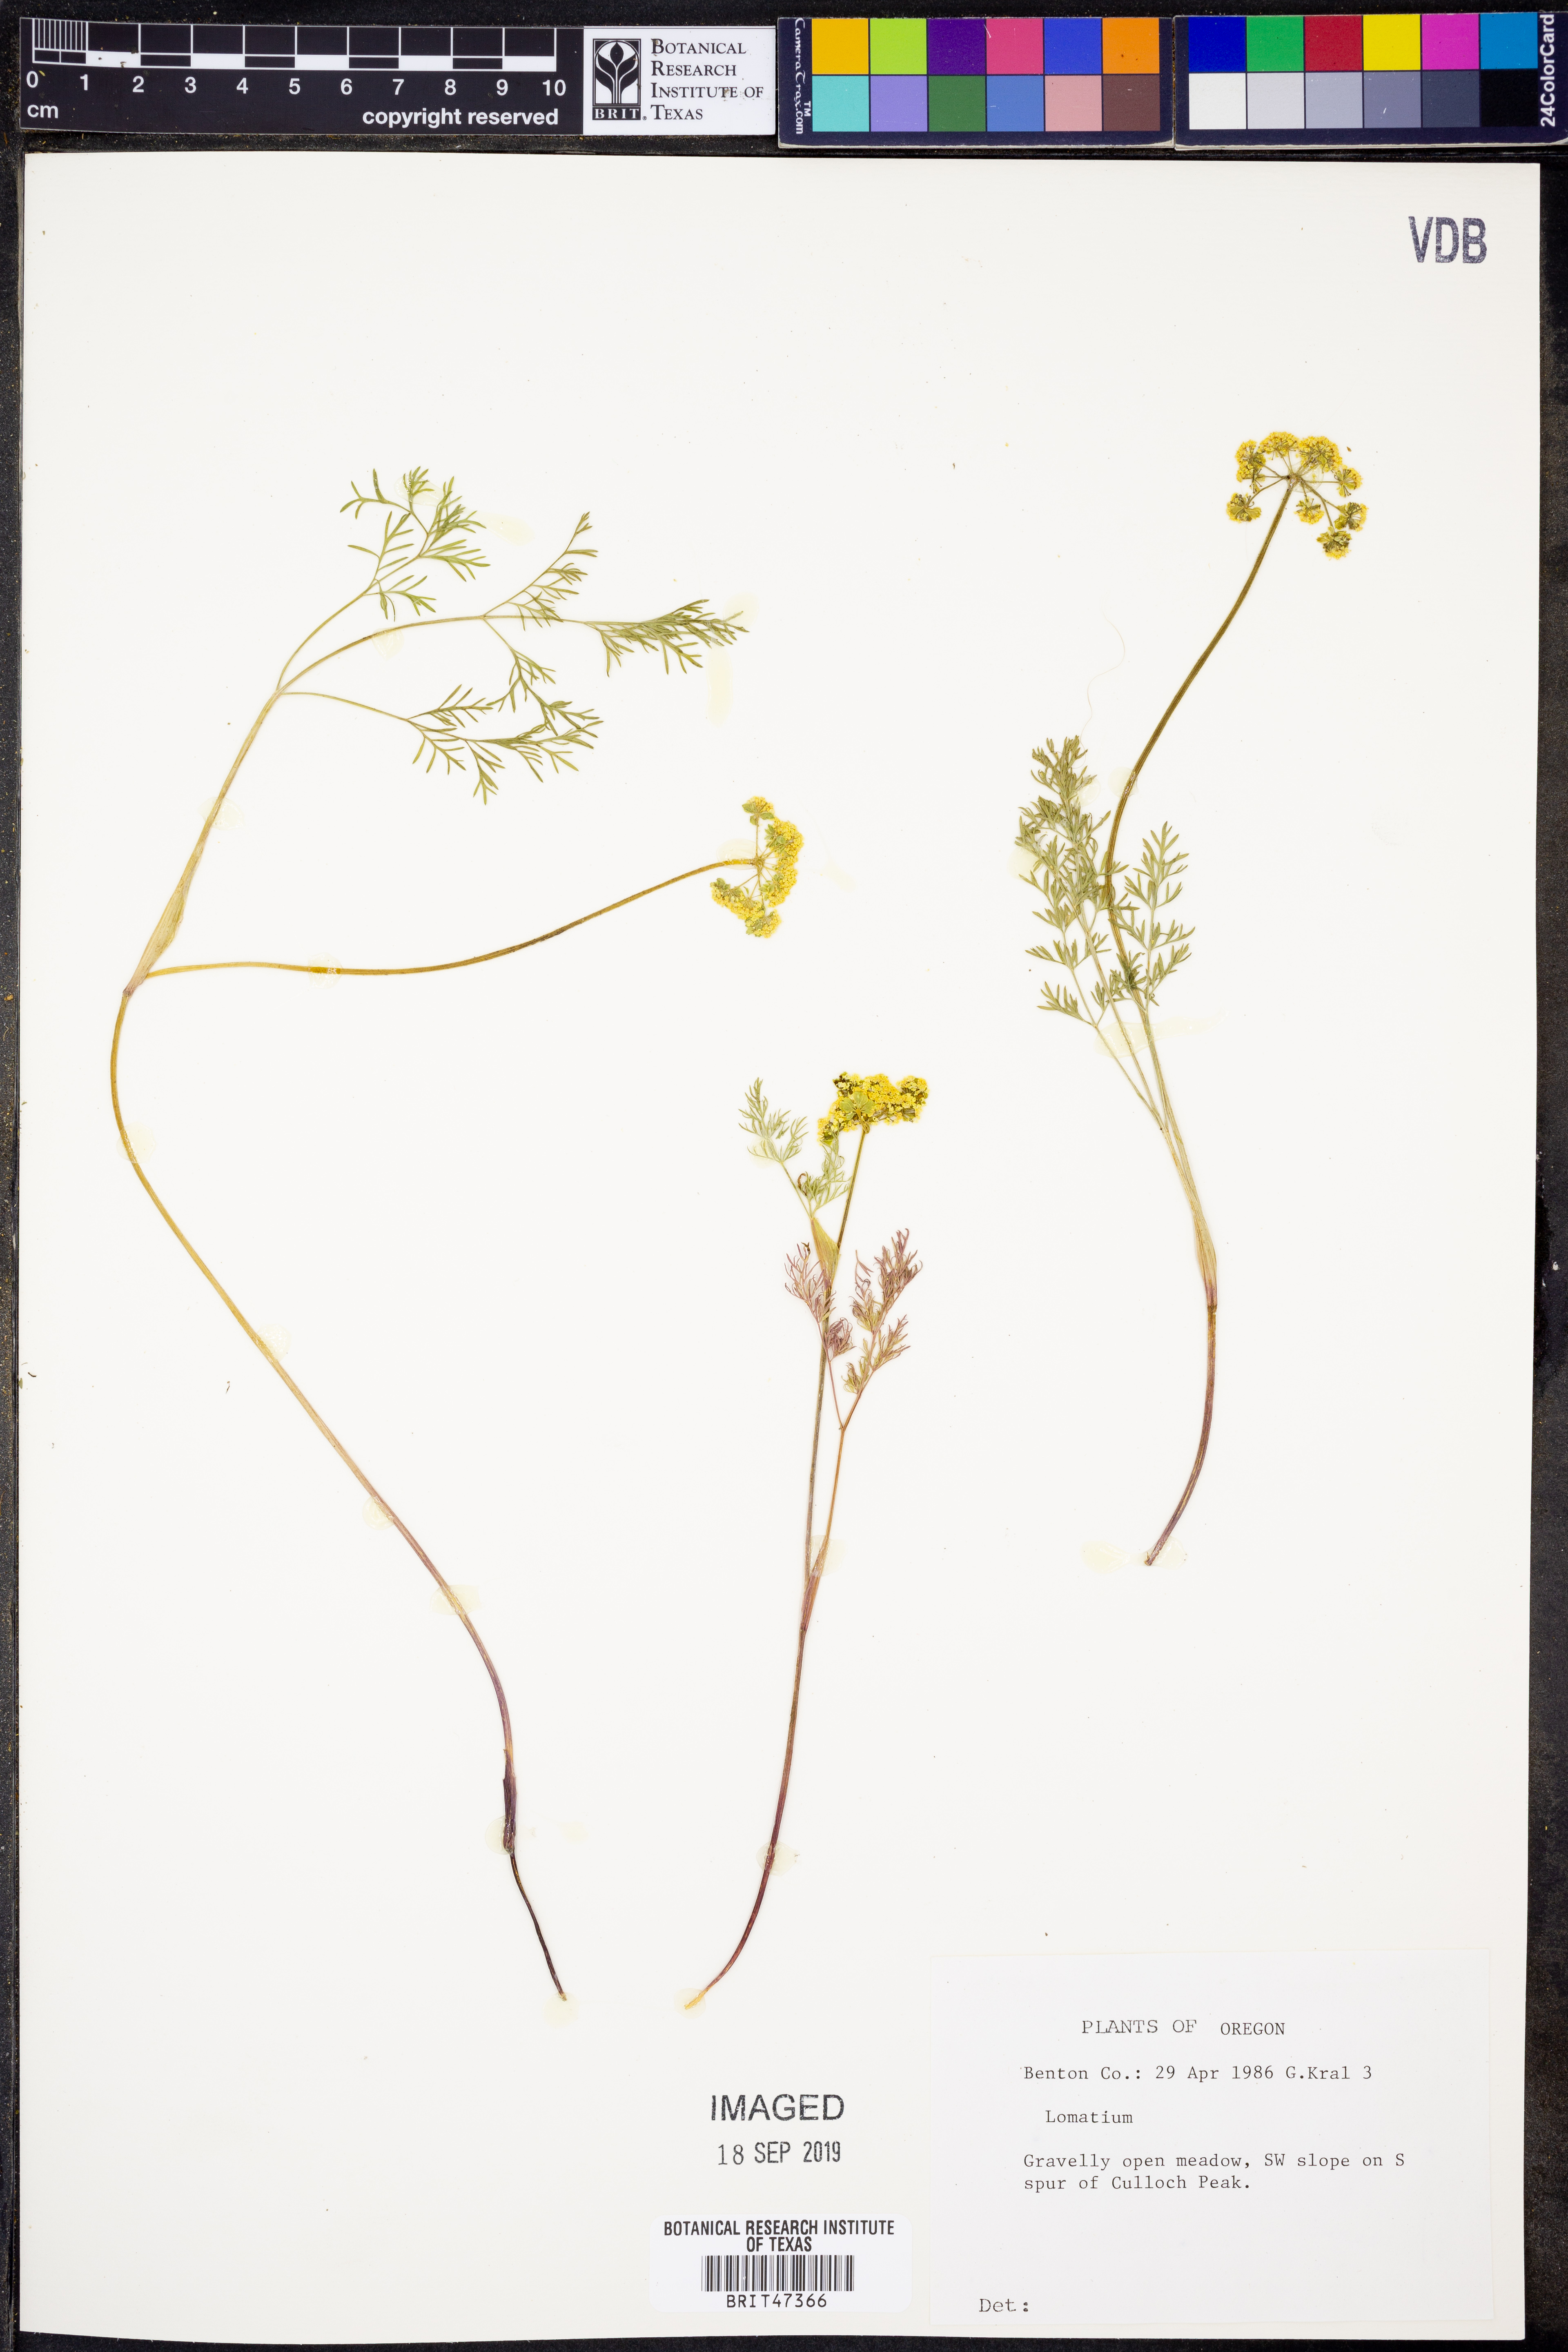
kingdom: Plantae
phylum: Tracheophyta
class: Magnoliopsida
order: Apiales
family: Apiaceae
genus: Lomatium
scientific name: Lomatium
